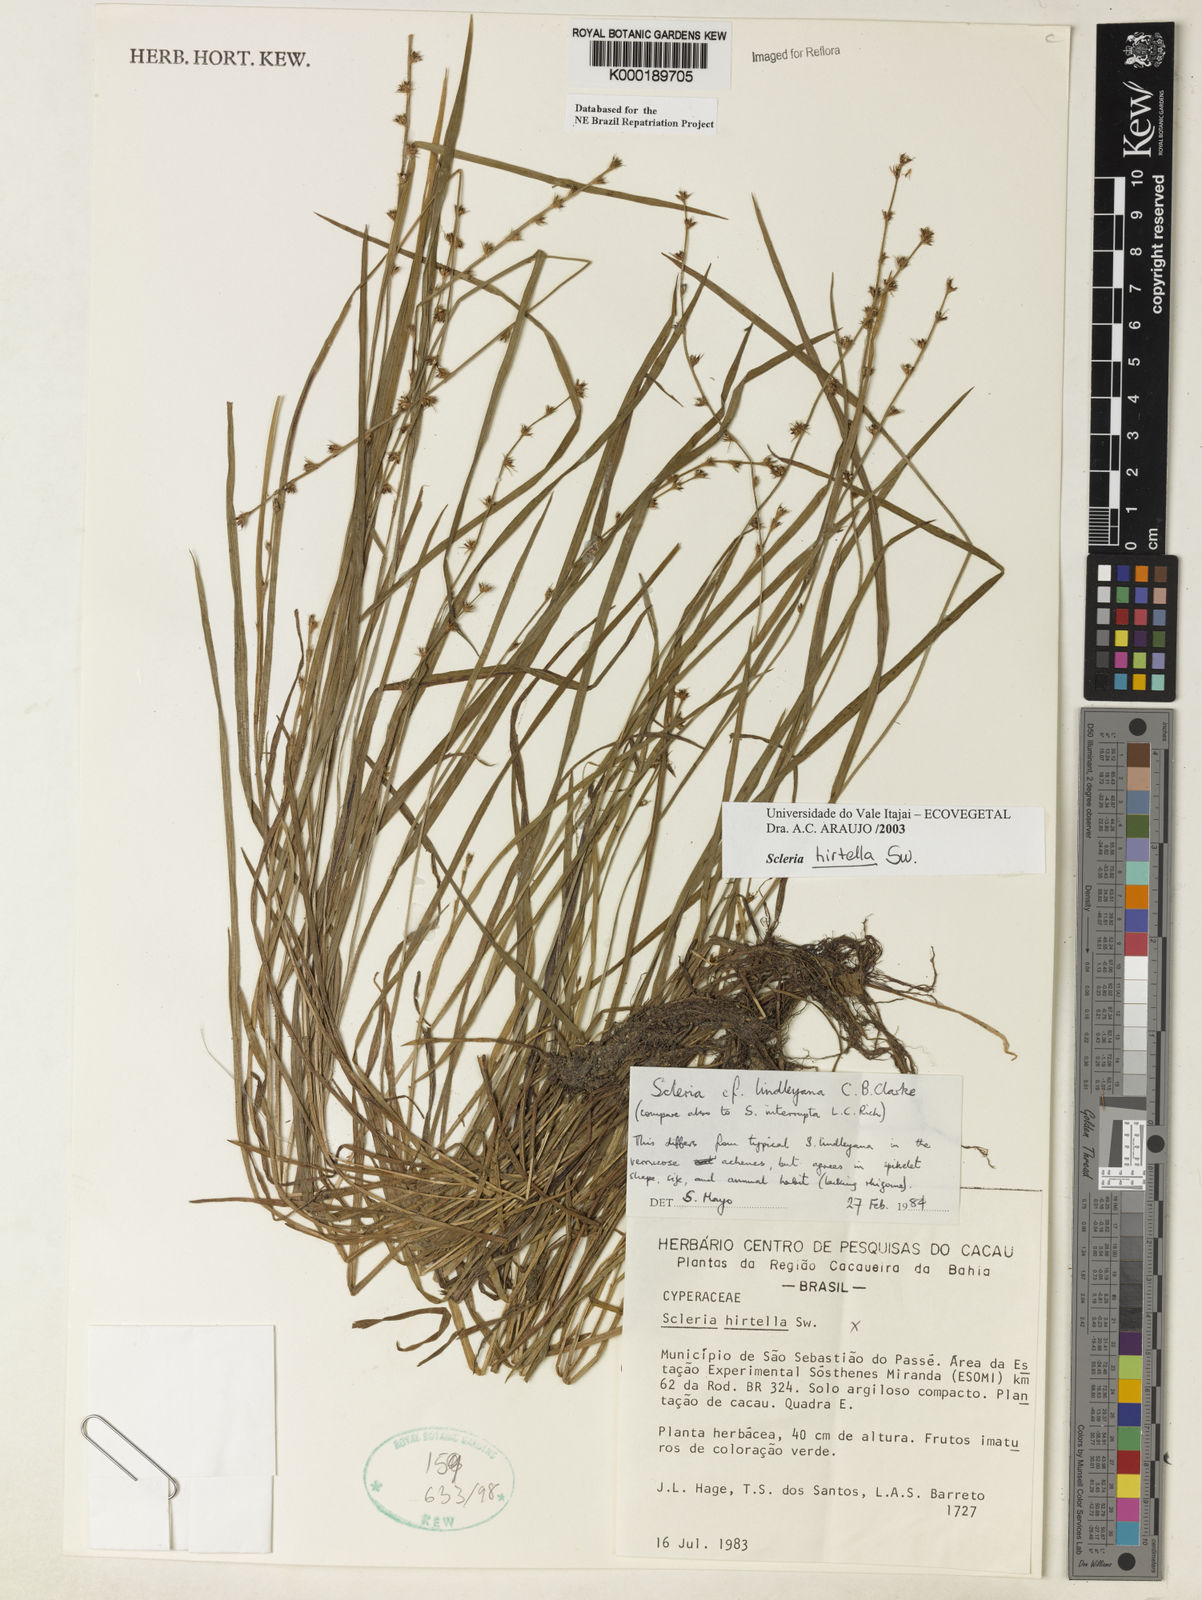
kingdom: Plantae
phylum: Tracheophyta
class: Liliopsida
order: Poales
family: Cyperaceae
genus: Scleria
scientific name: Scleria hirtella
